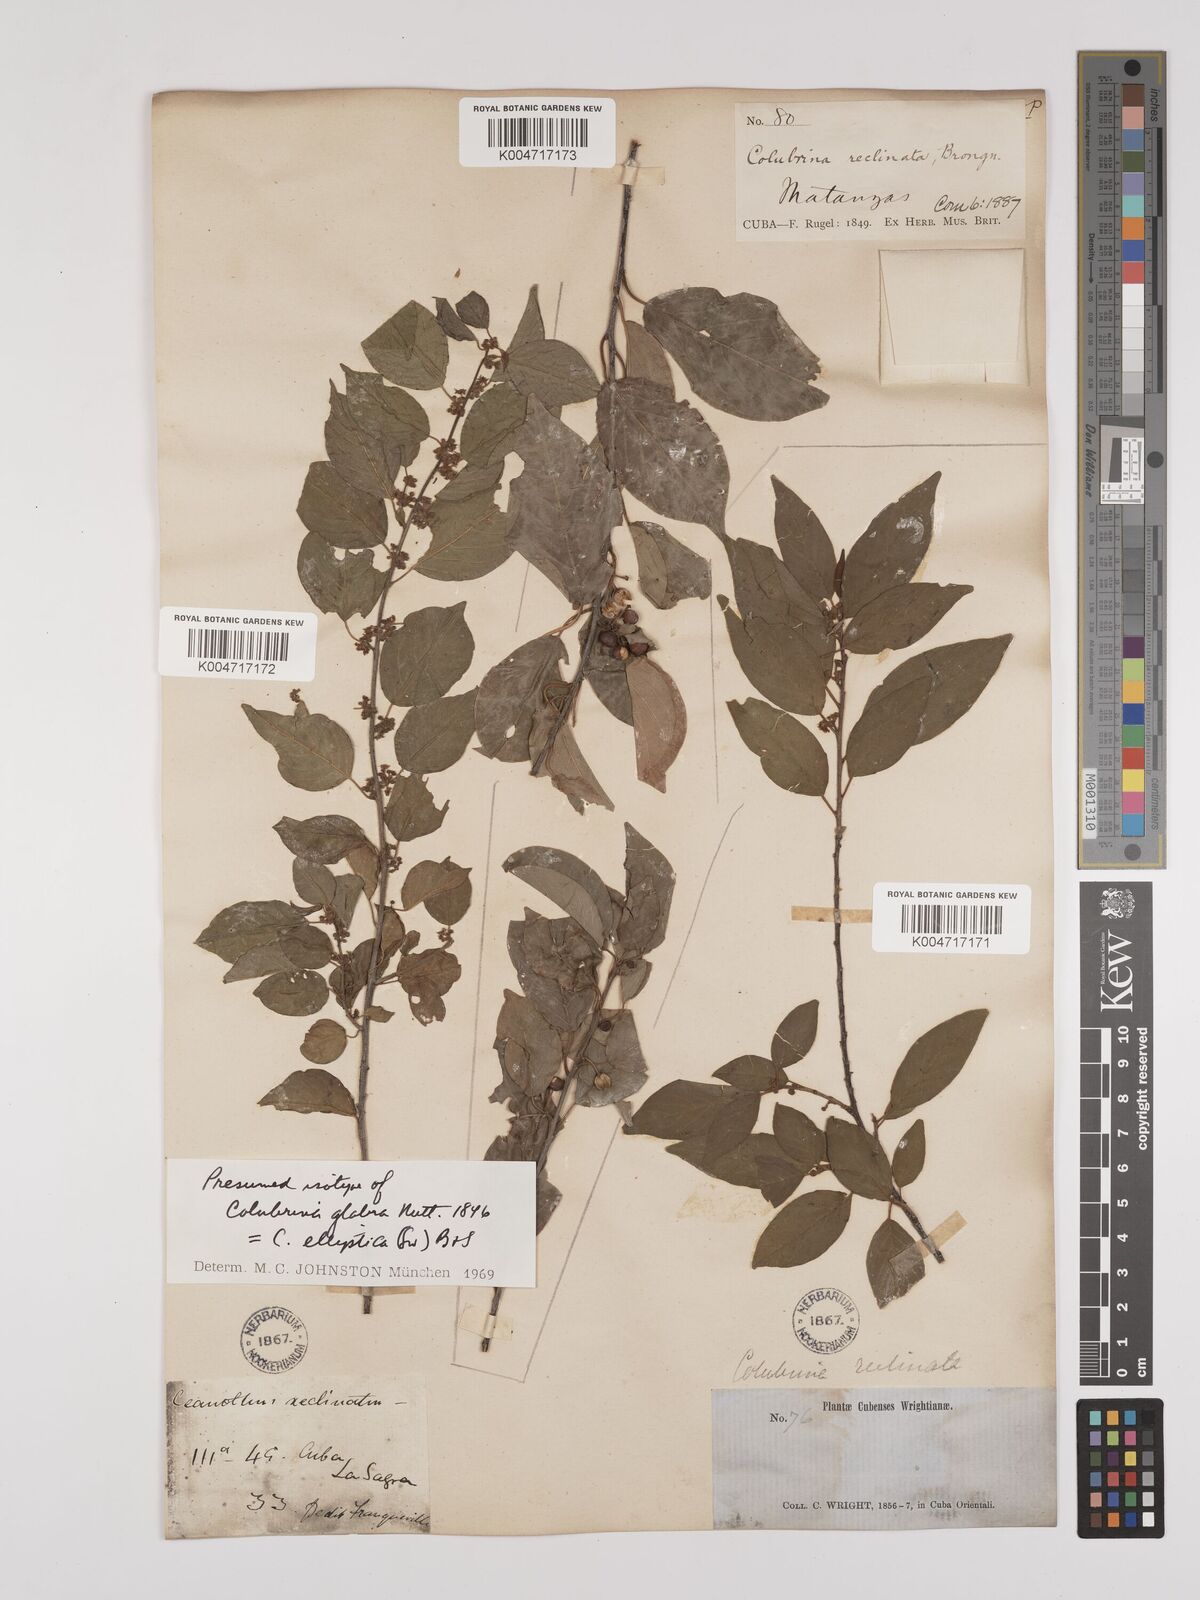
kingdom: Plantae
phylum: Tracheophyta
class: Magnoliopsida
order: Rosales
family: Rhamnaceae
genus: Colubrina
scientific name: Colubrina elliptica
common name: Soldierwood
